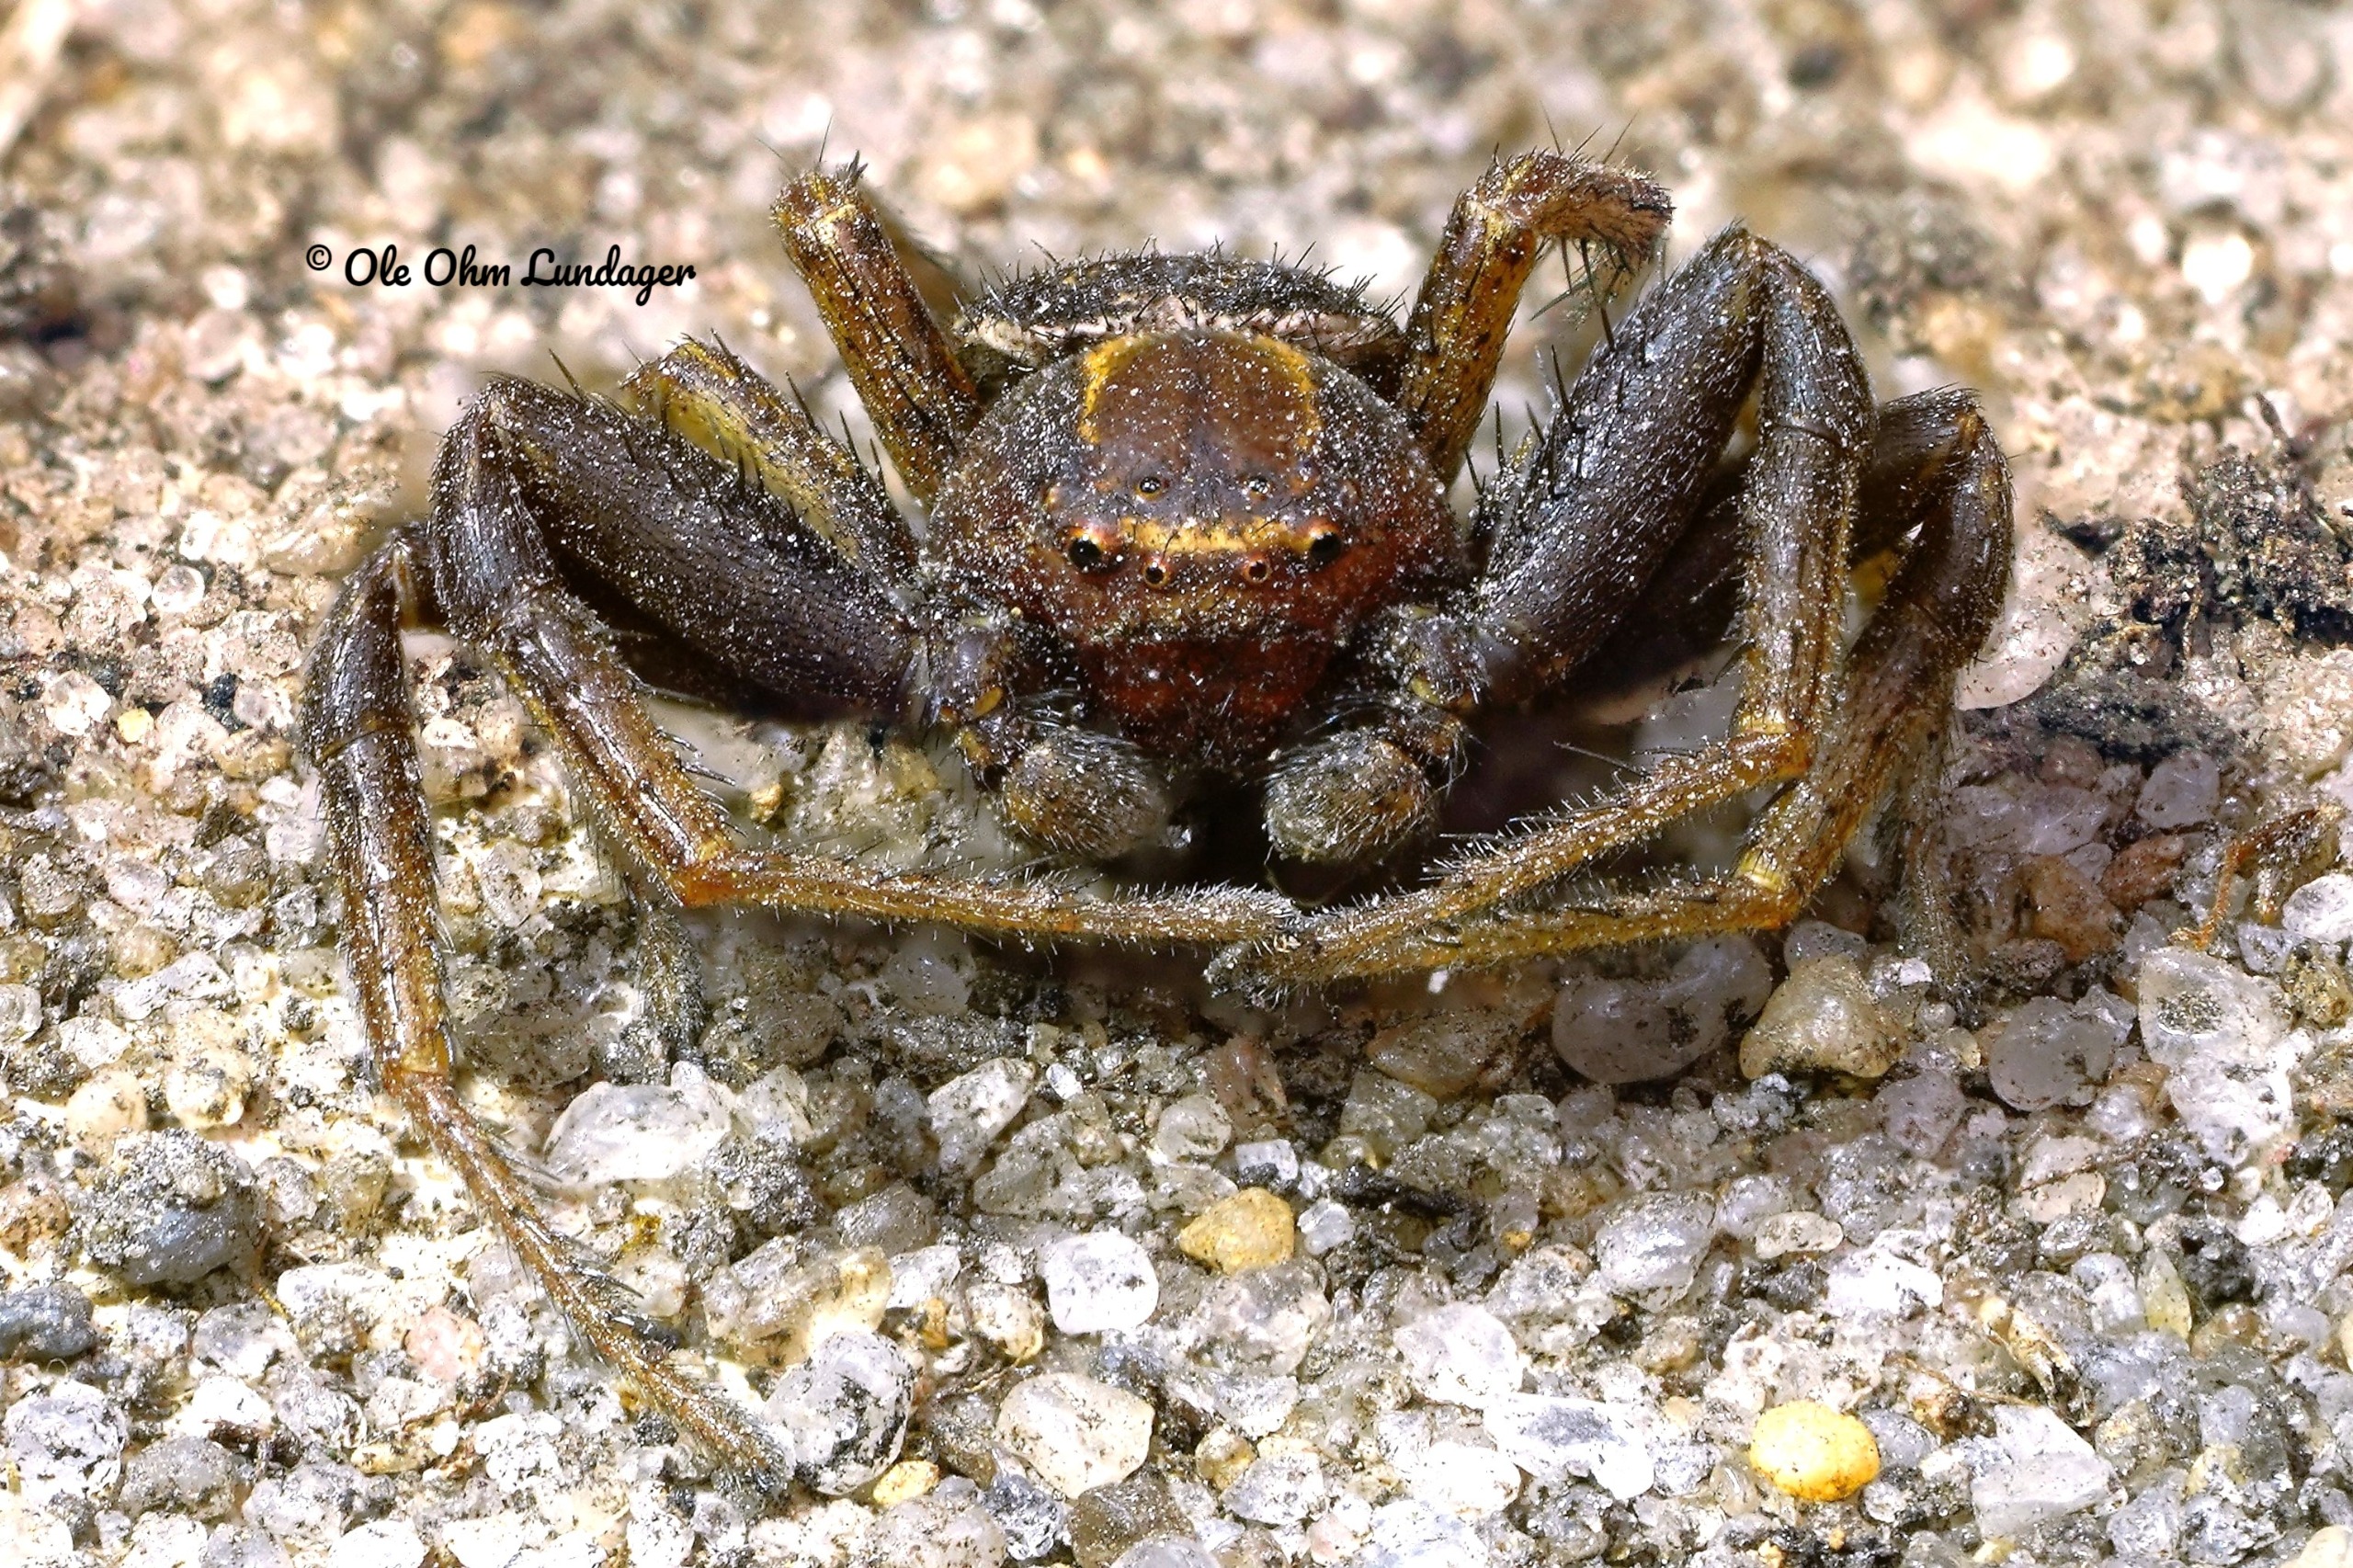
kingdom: Animalia
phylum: Arthropoda
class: Arachnida
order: Araneae
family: Thomisidae
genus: Xysticus
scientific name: Xysticus bifasciatus
